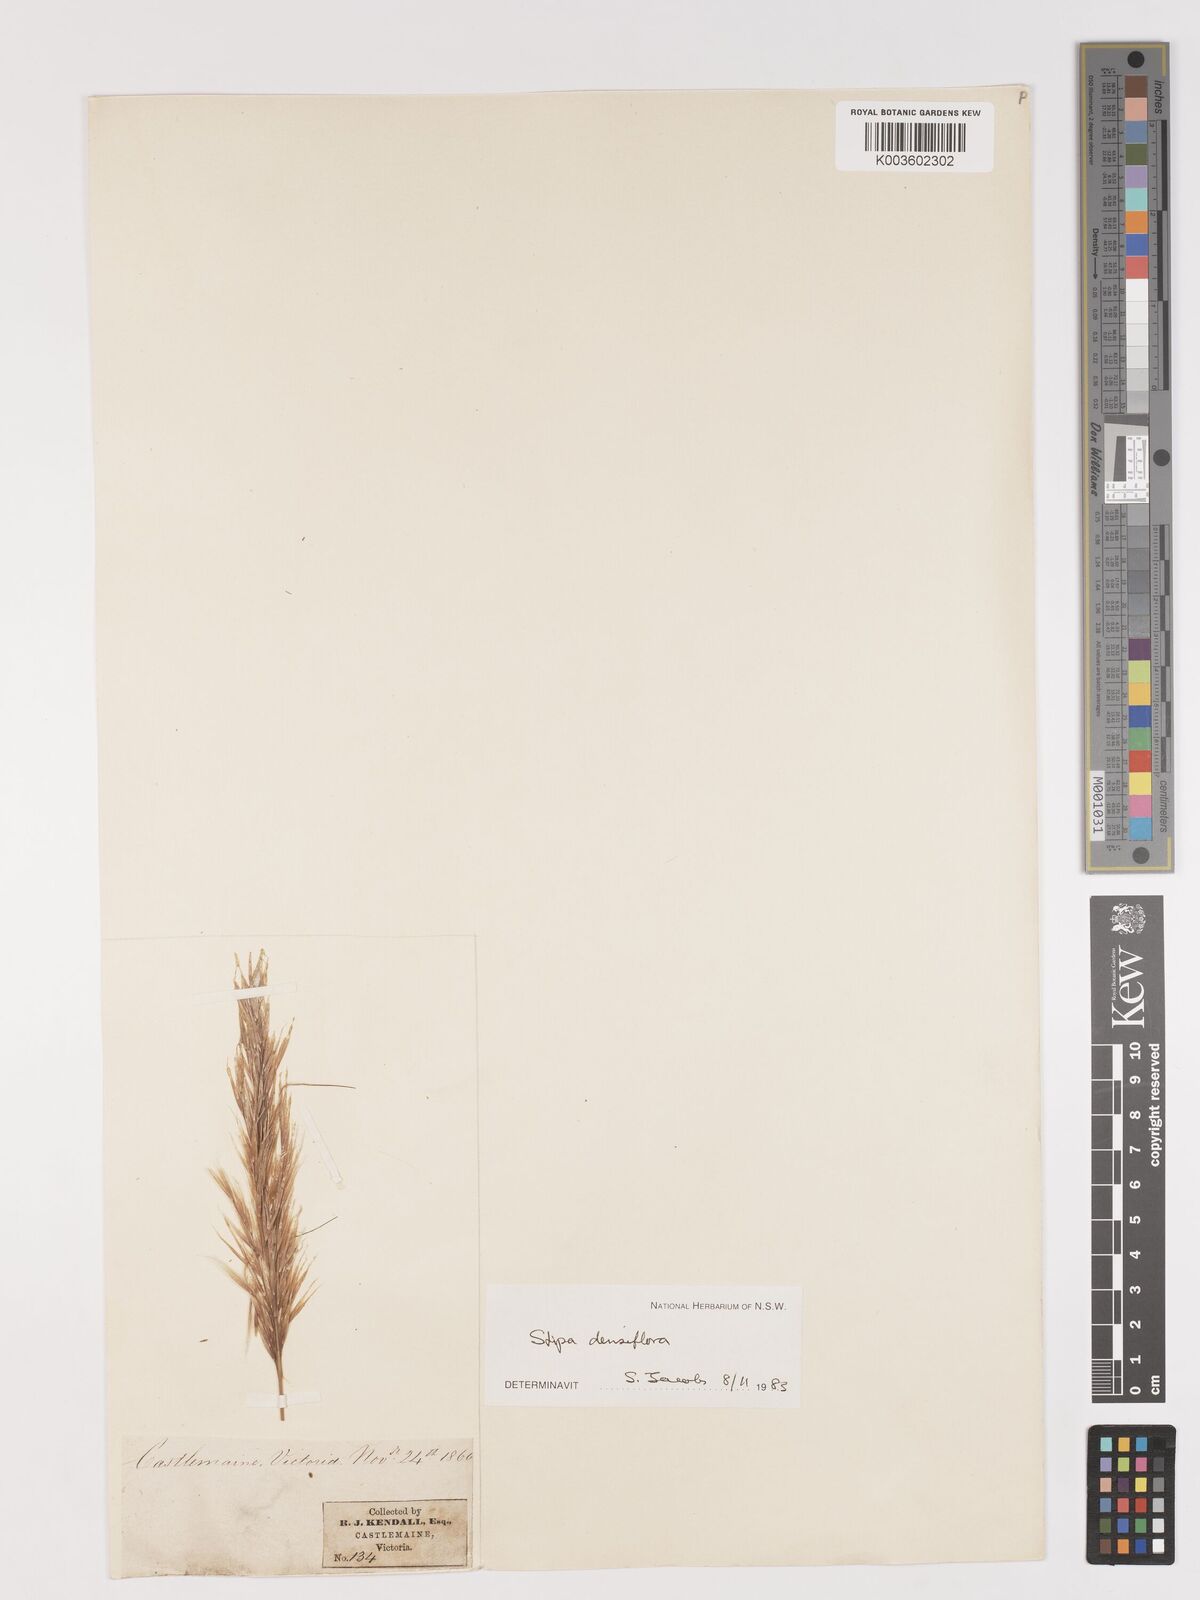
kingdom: Plantae
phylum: Tracheophyta
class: Liliopsida
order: Poales
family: Poaceae
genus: Stipa
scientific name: Stipa
